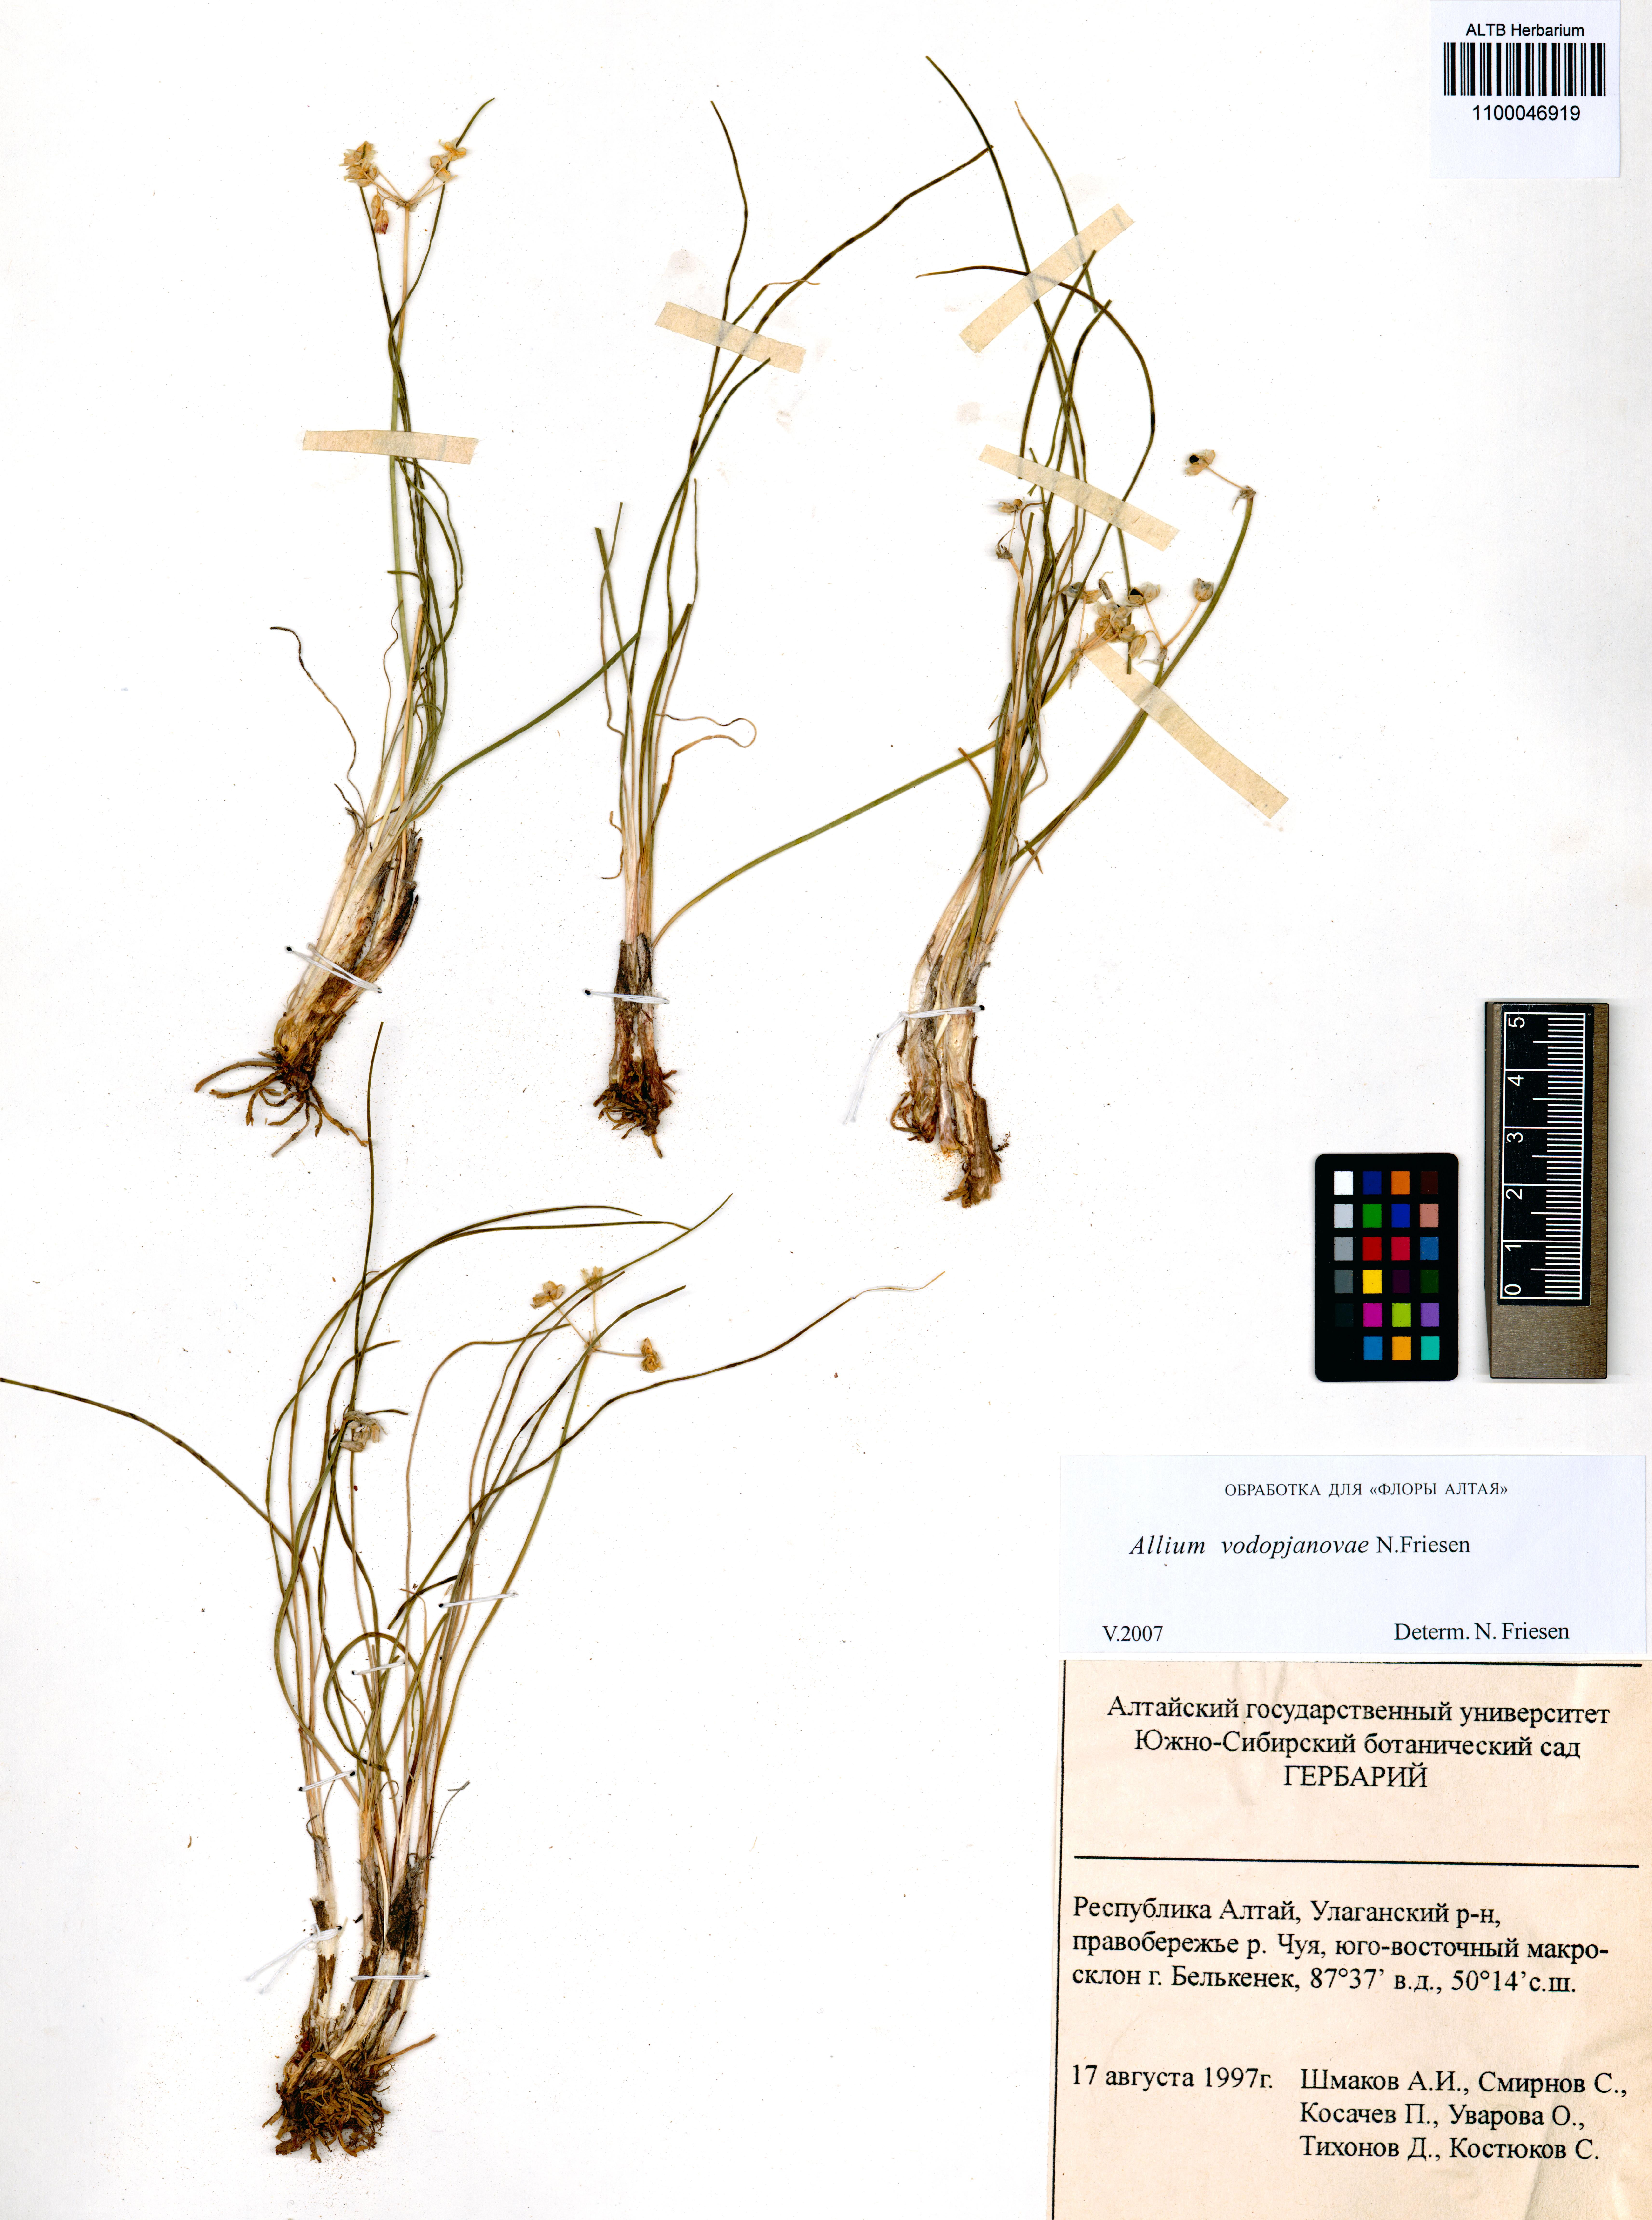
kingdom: Plantae
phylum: Tracheophyta
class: Liliopsida
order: Asparagales
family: Amaryllidaceae
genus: Allium
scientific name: Allium vodopjanovae
